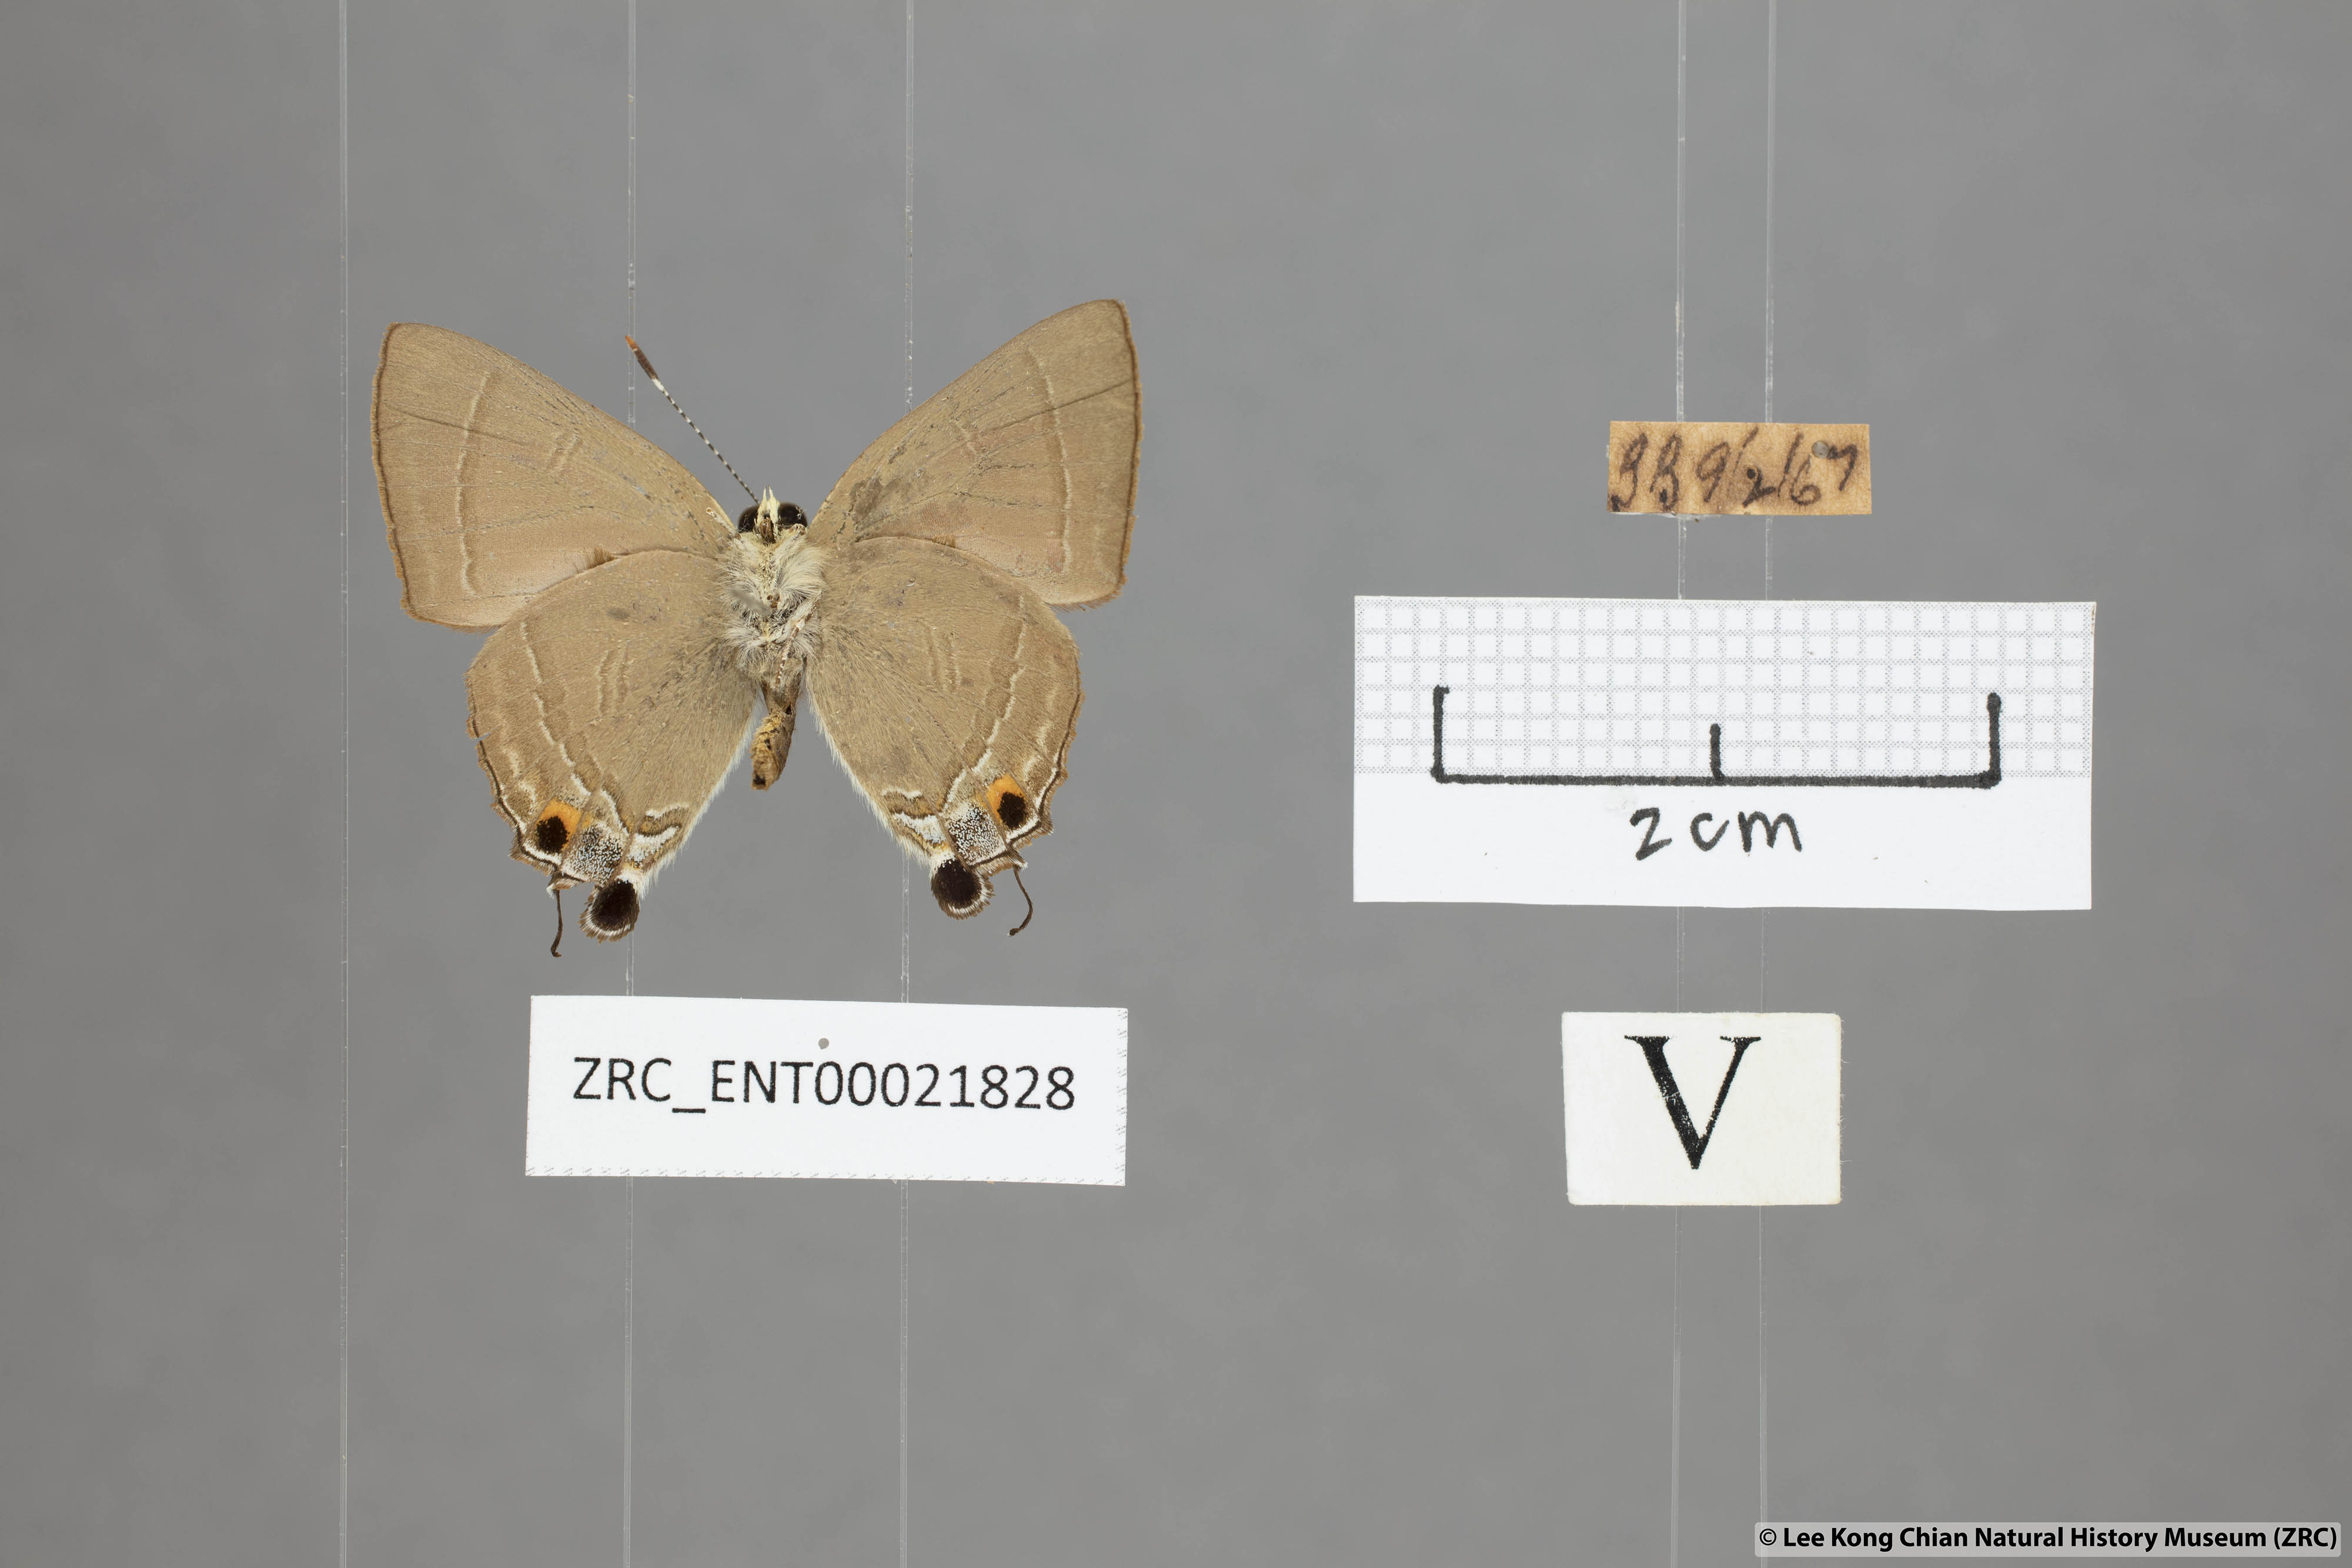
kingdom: Animalia
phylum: Arthropoda
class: Insecta
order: Lepidoptera
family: Lycaenidae
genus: Rapala
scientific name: Rapala iarbas
